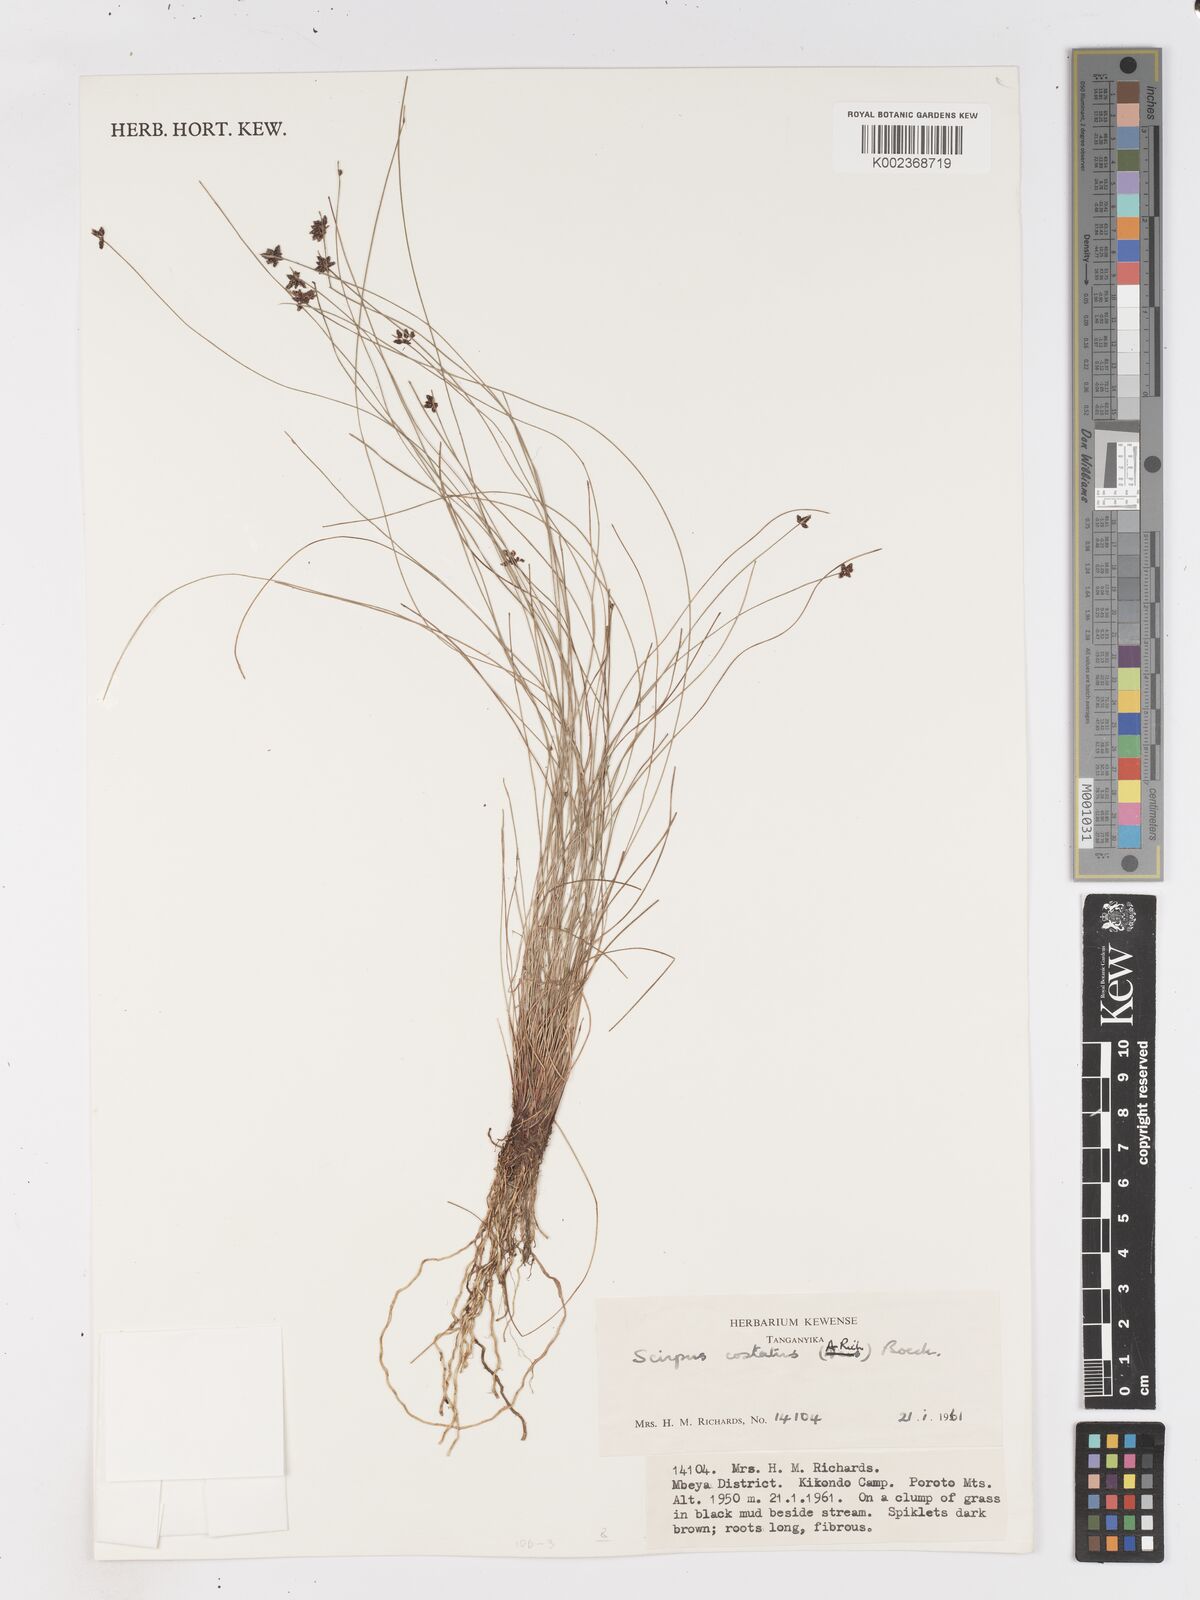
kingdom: Plantae
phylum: Tracheophyta
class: Liliopsida
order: Poales
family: Cyperaceae
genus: Isolepis
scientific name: Isolepis costata
